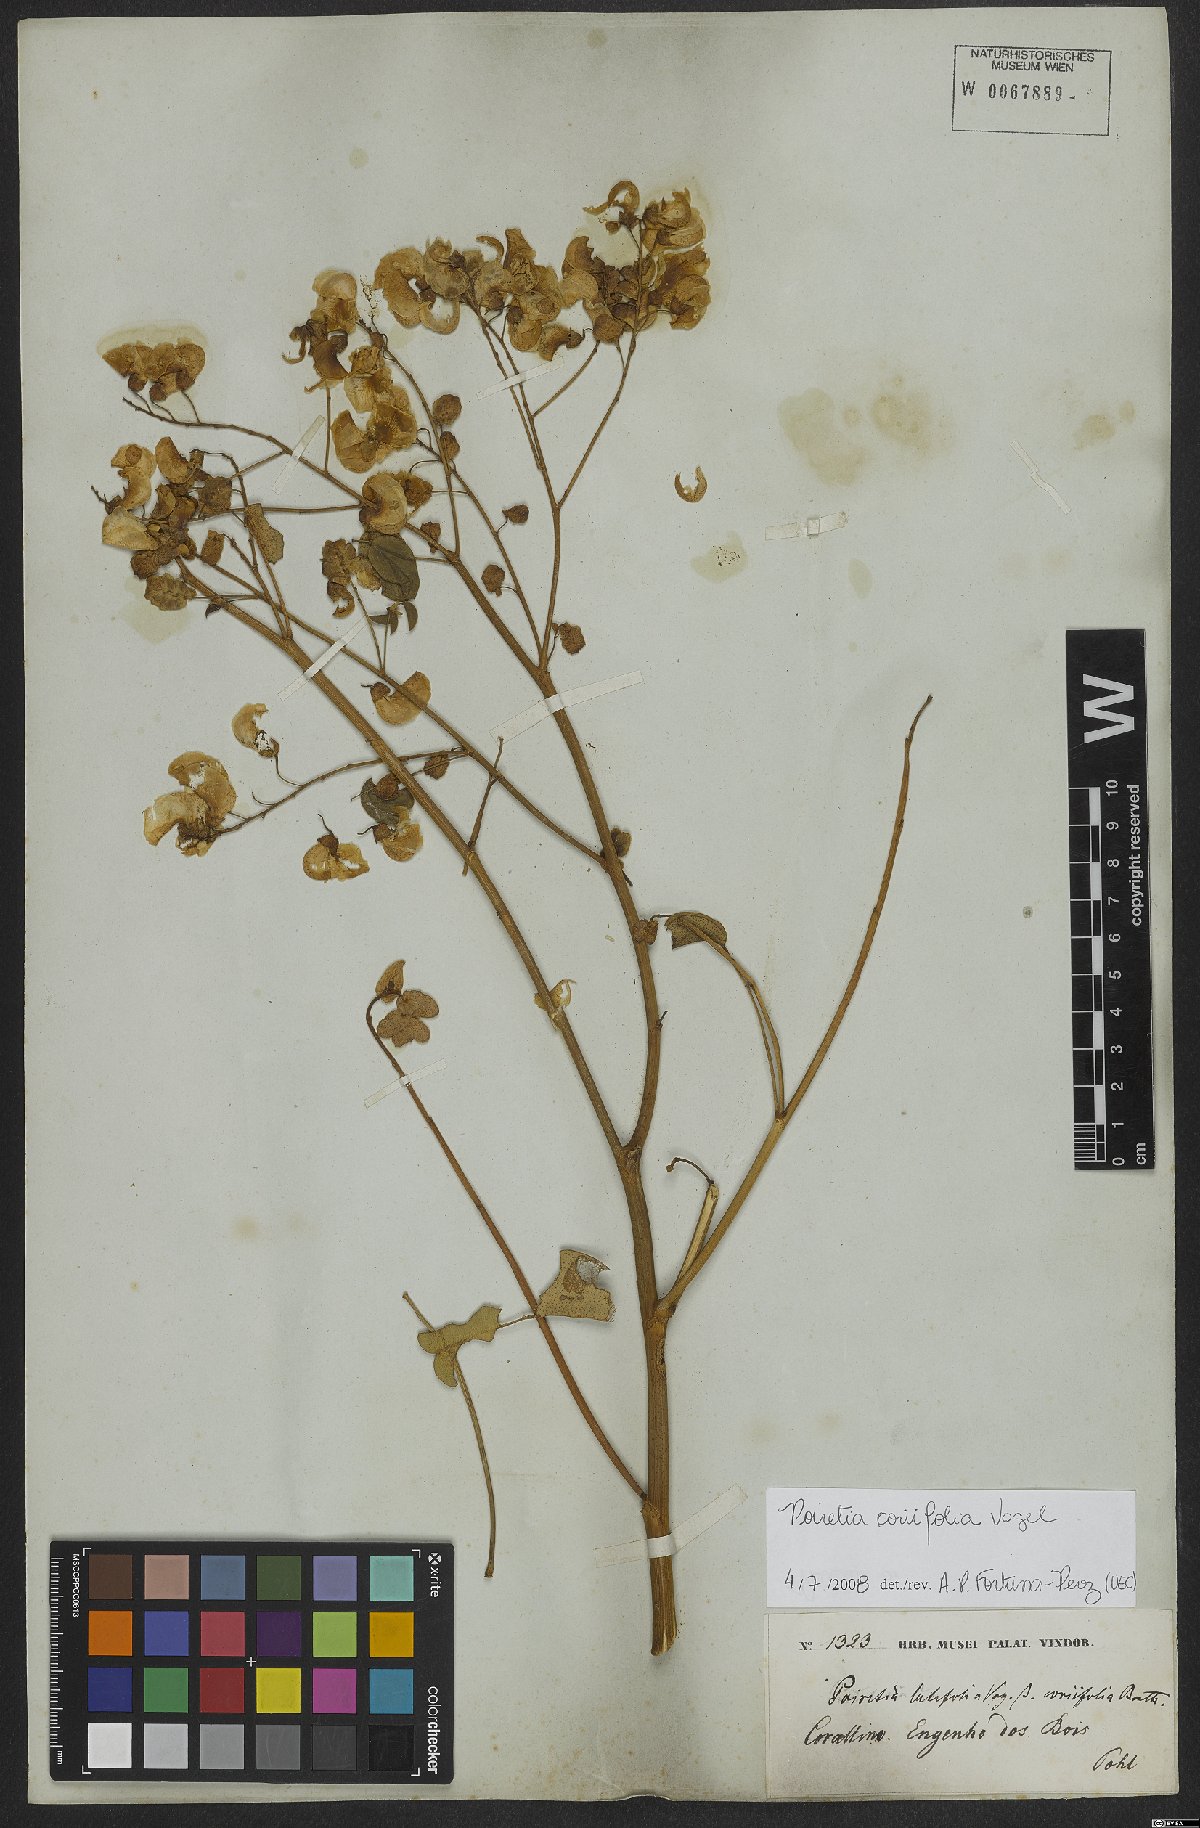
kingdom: Plantae
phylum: Tracheophyta
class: Magnoliopsida
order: Fabales
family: Fabaceae
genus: Poiretia
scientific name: Poiretia coriifolia
